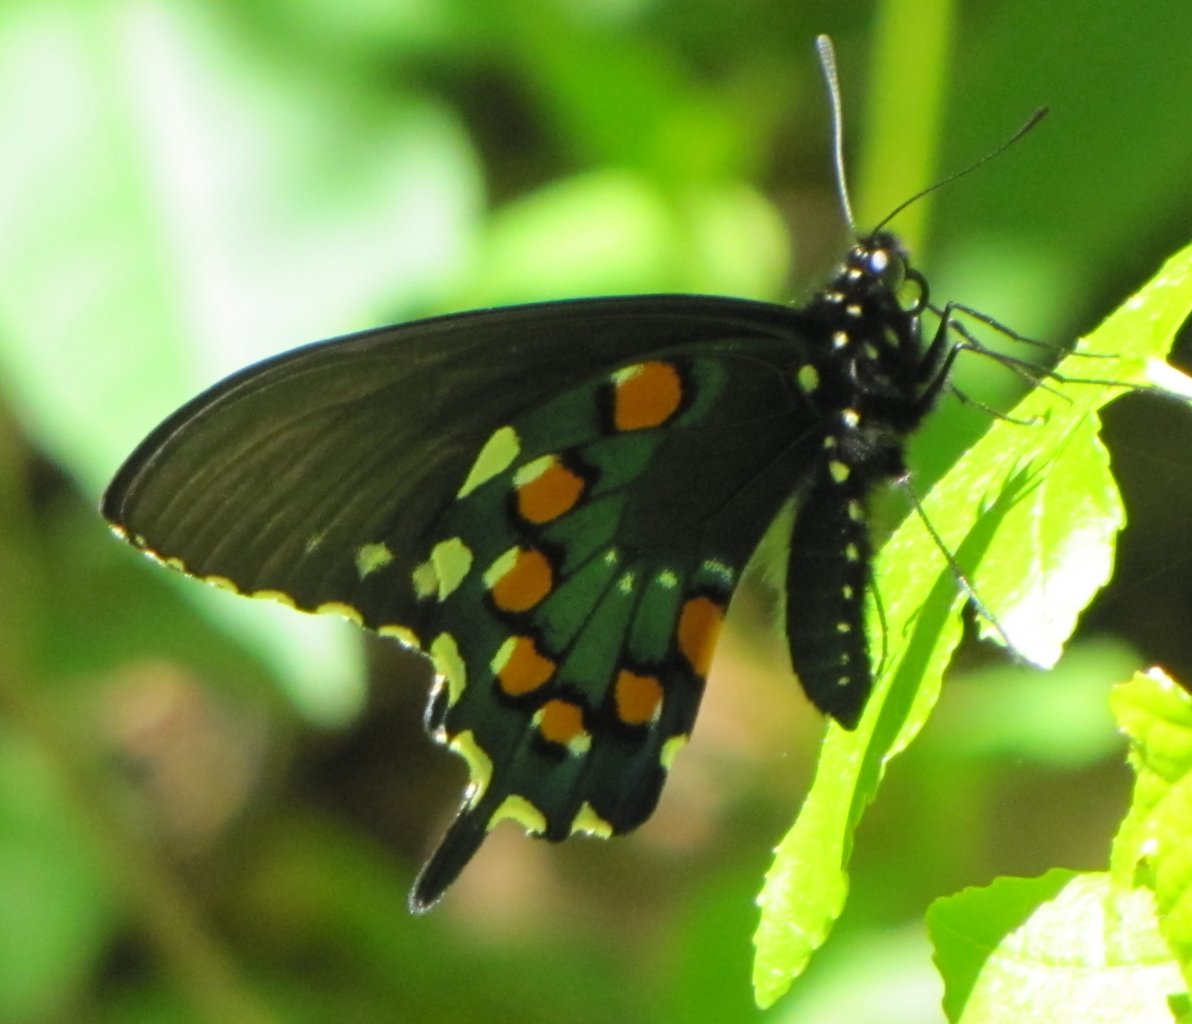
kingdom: Animalia
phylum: Arthropoda
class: Insecta
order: Lepidoptera
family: Papilionidae
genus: Battus
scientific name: Battus philenor
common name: Pipevine Swallowtail
